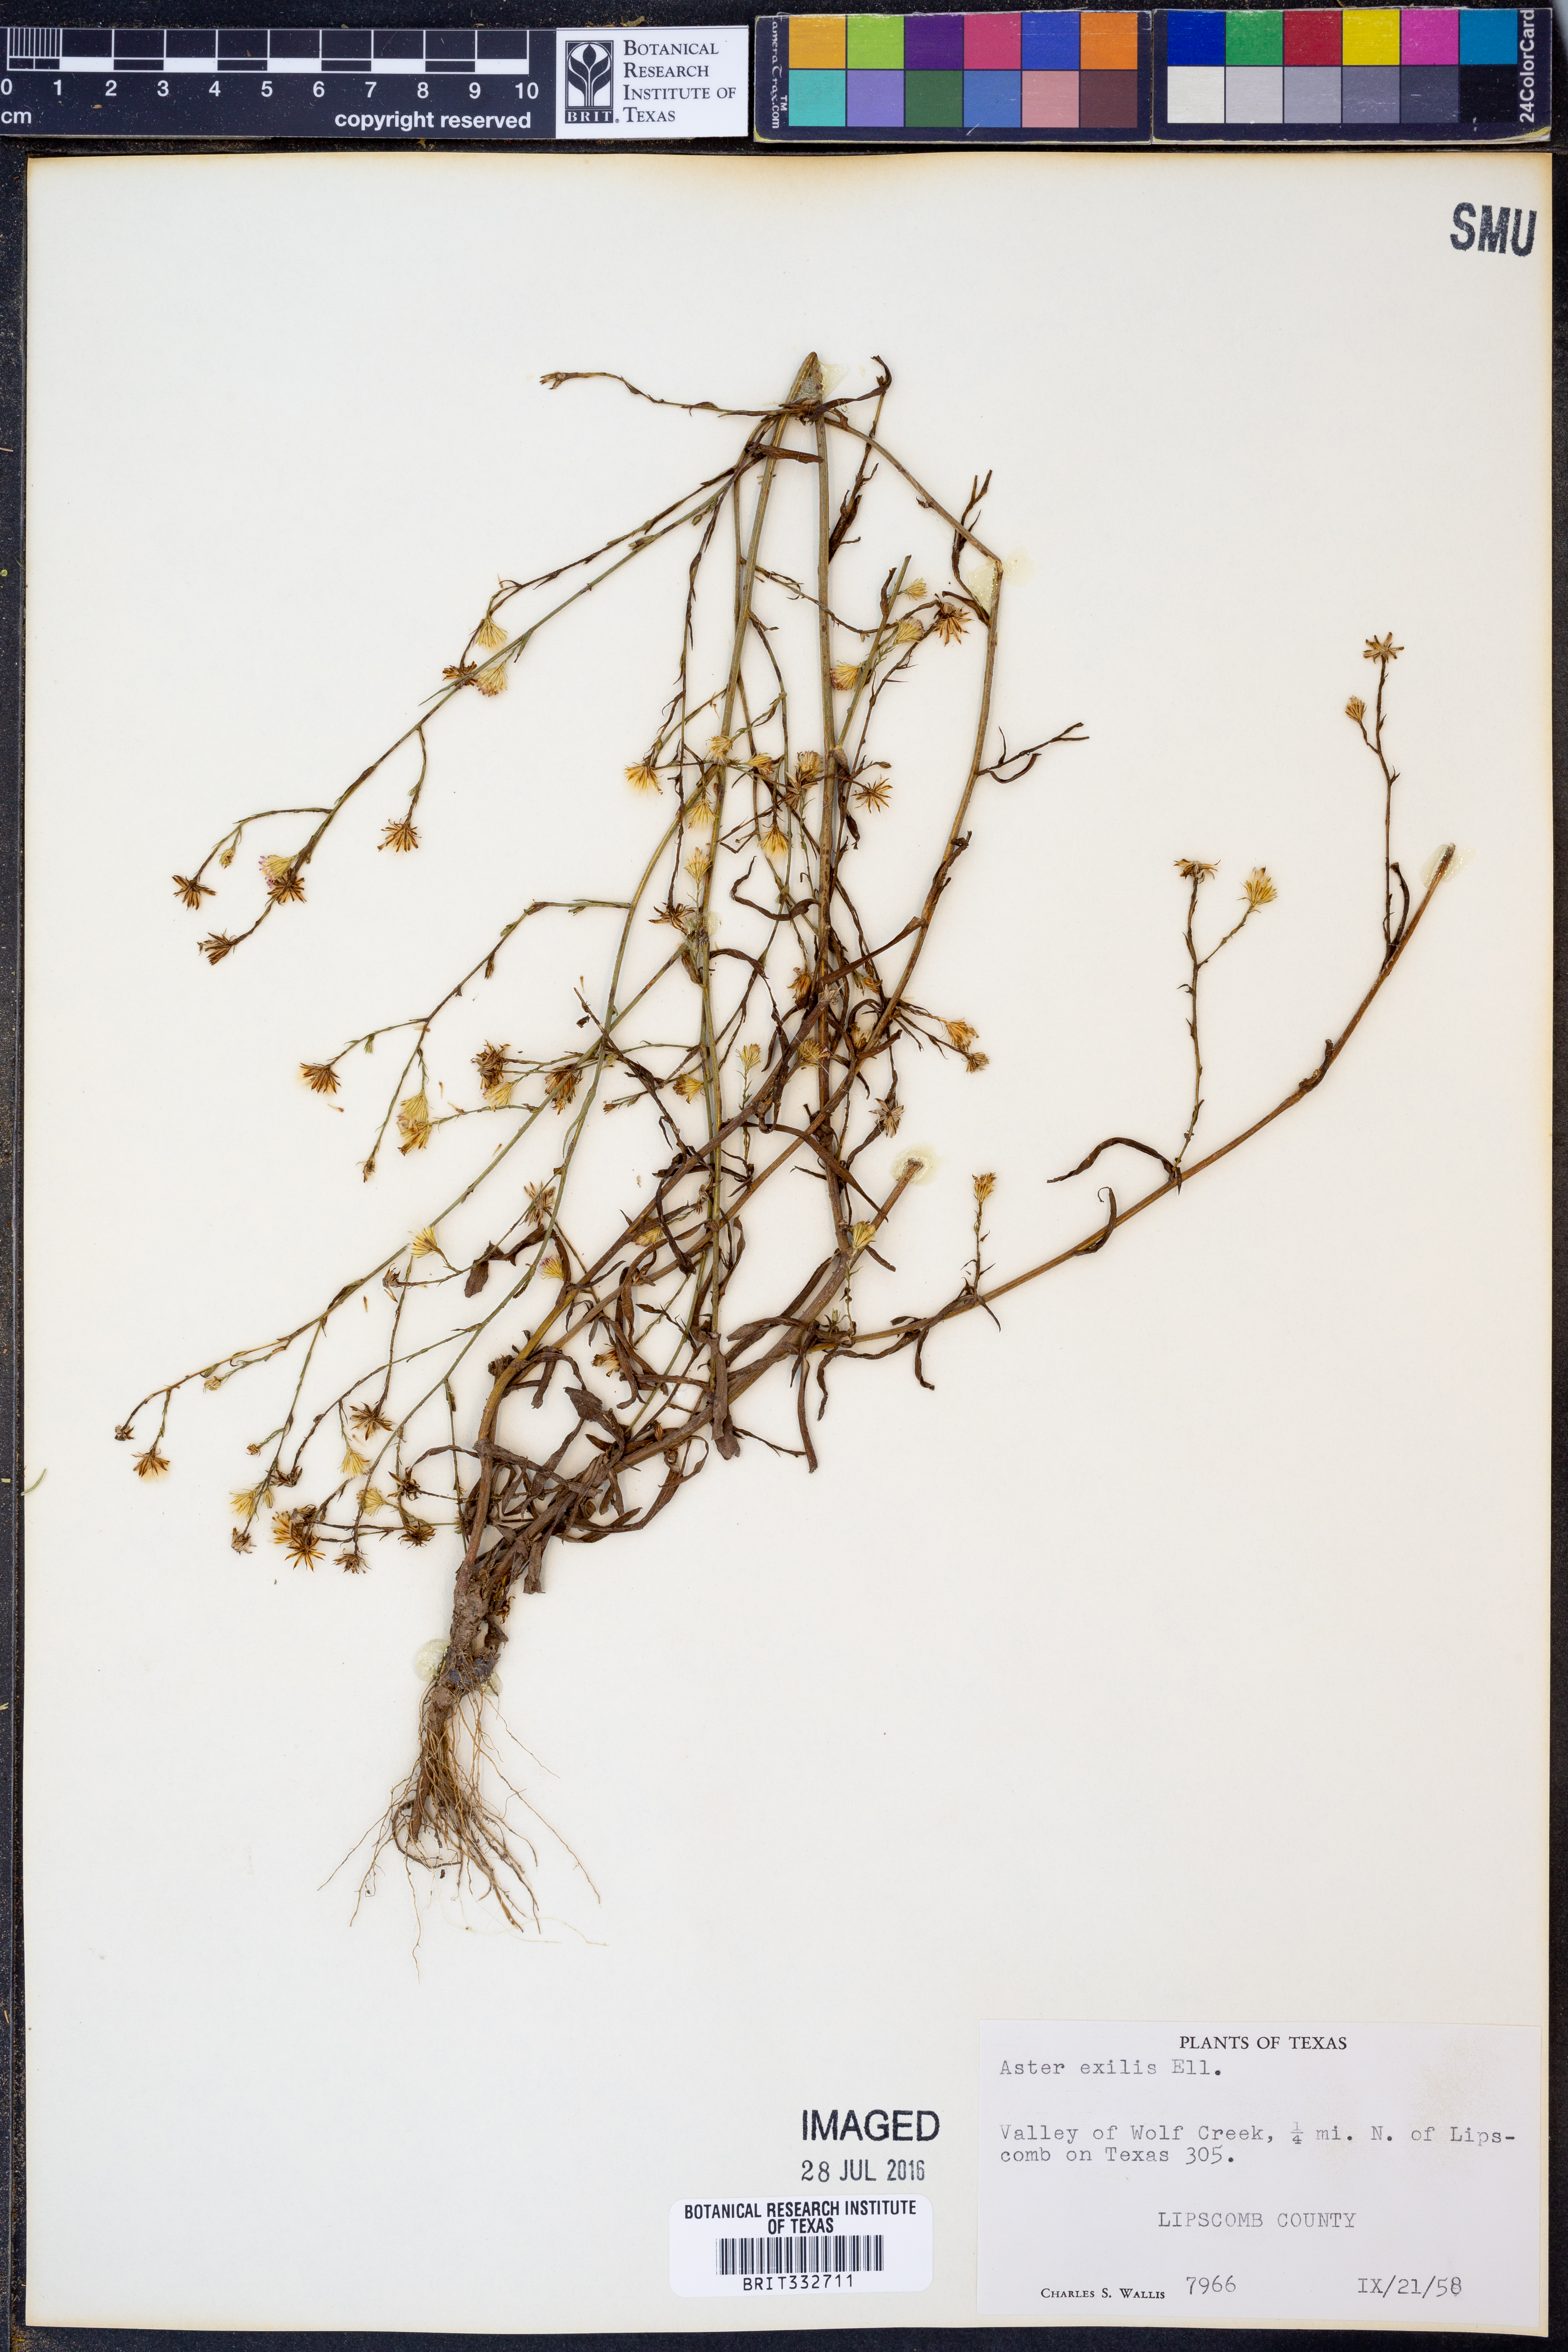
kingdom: Plantae
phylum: Tracheophyta
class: Magnoliopsida
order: Asterales
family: Asteraceae
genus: Symphyotrichum
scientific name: Symphyotrichum expansum
